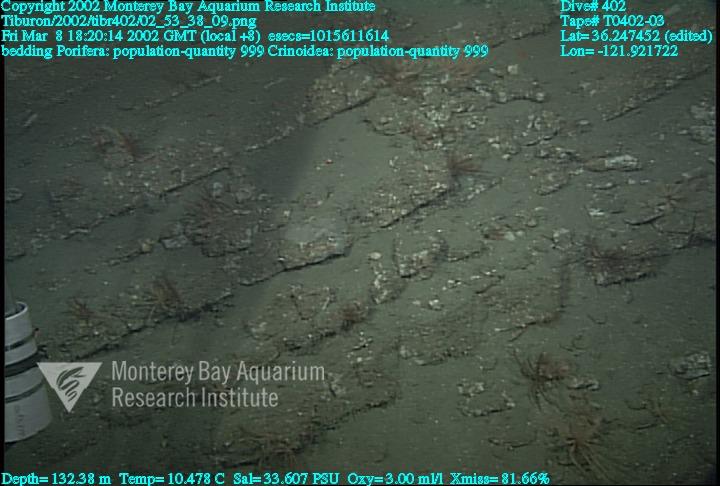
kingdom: Animalia
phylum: Porifera
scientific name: Porifera
